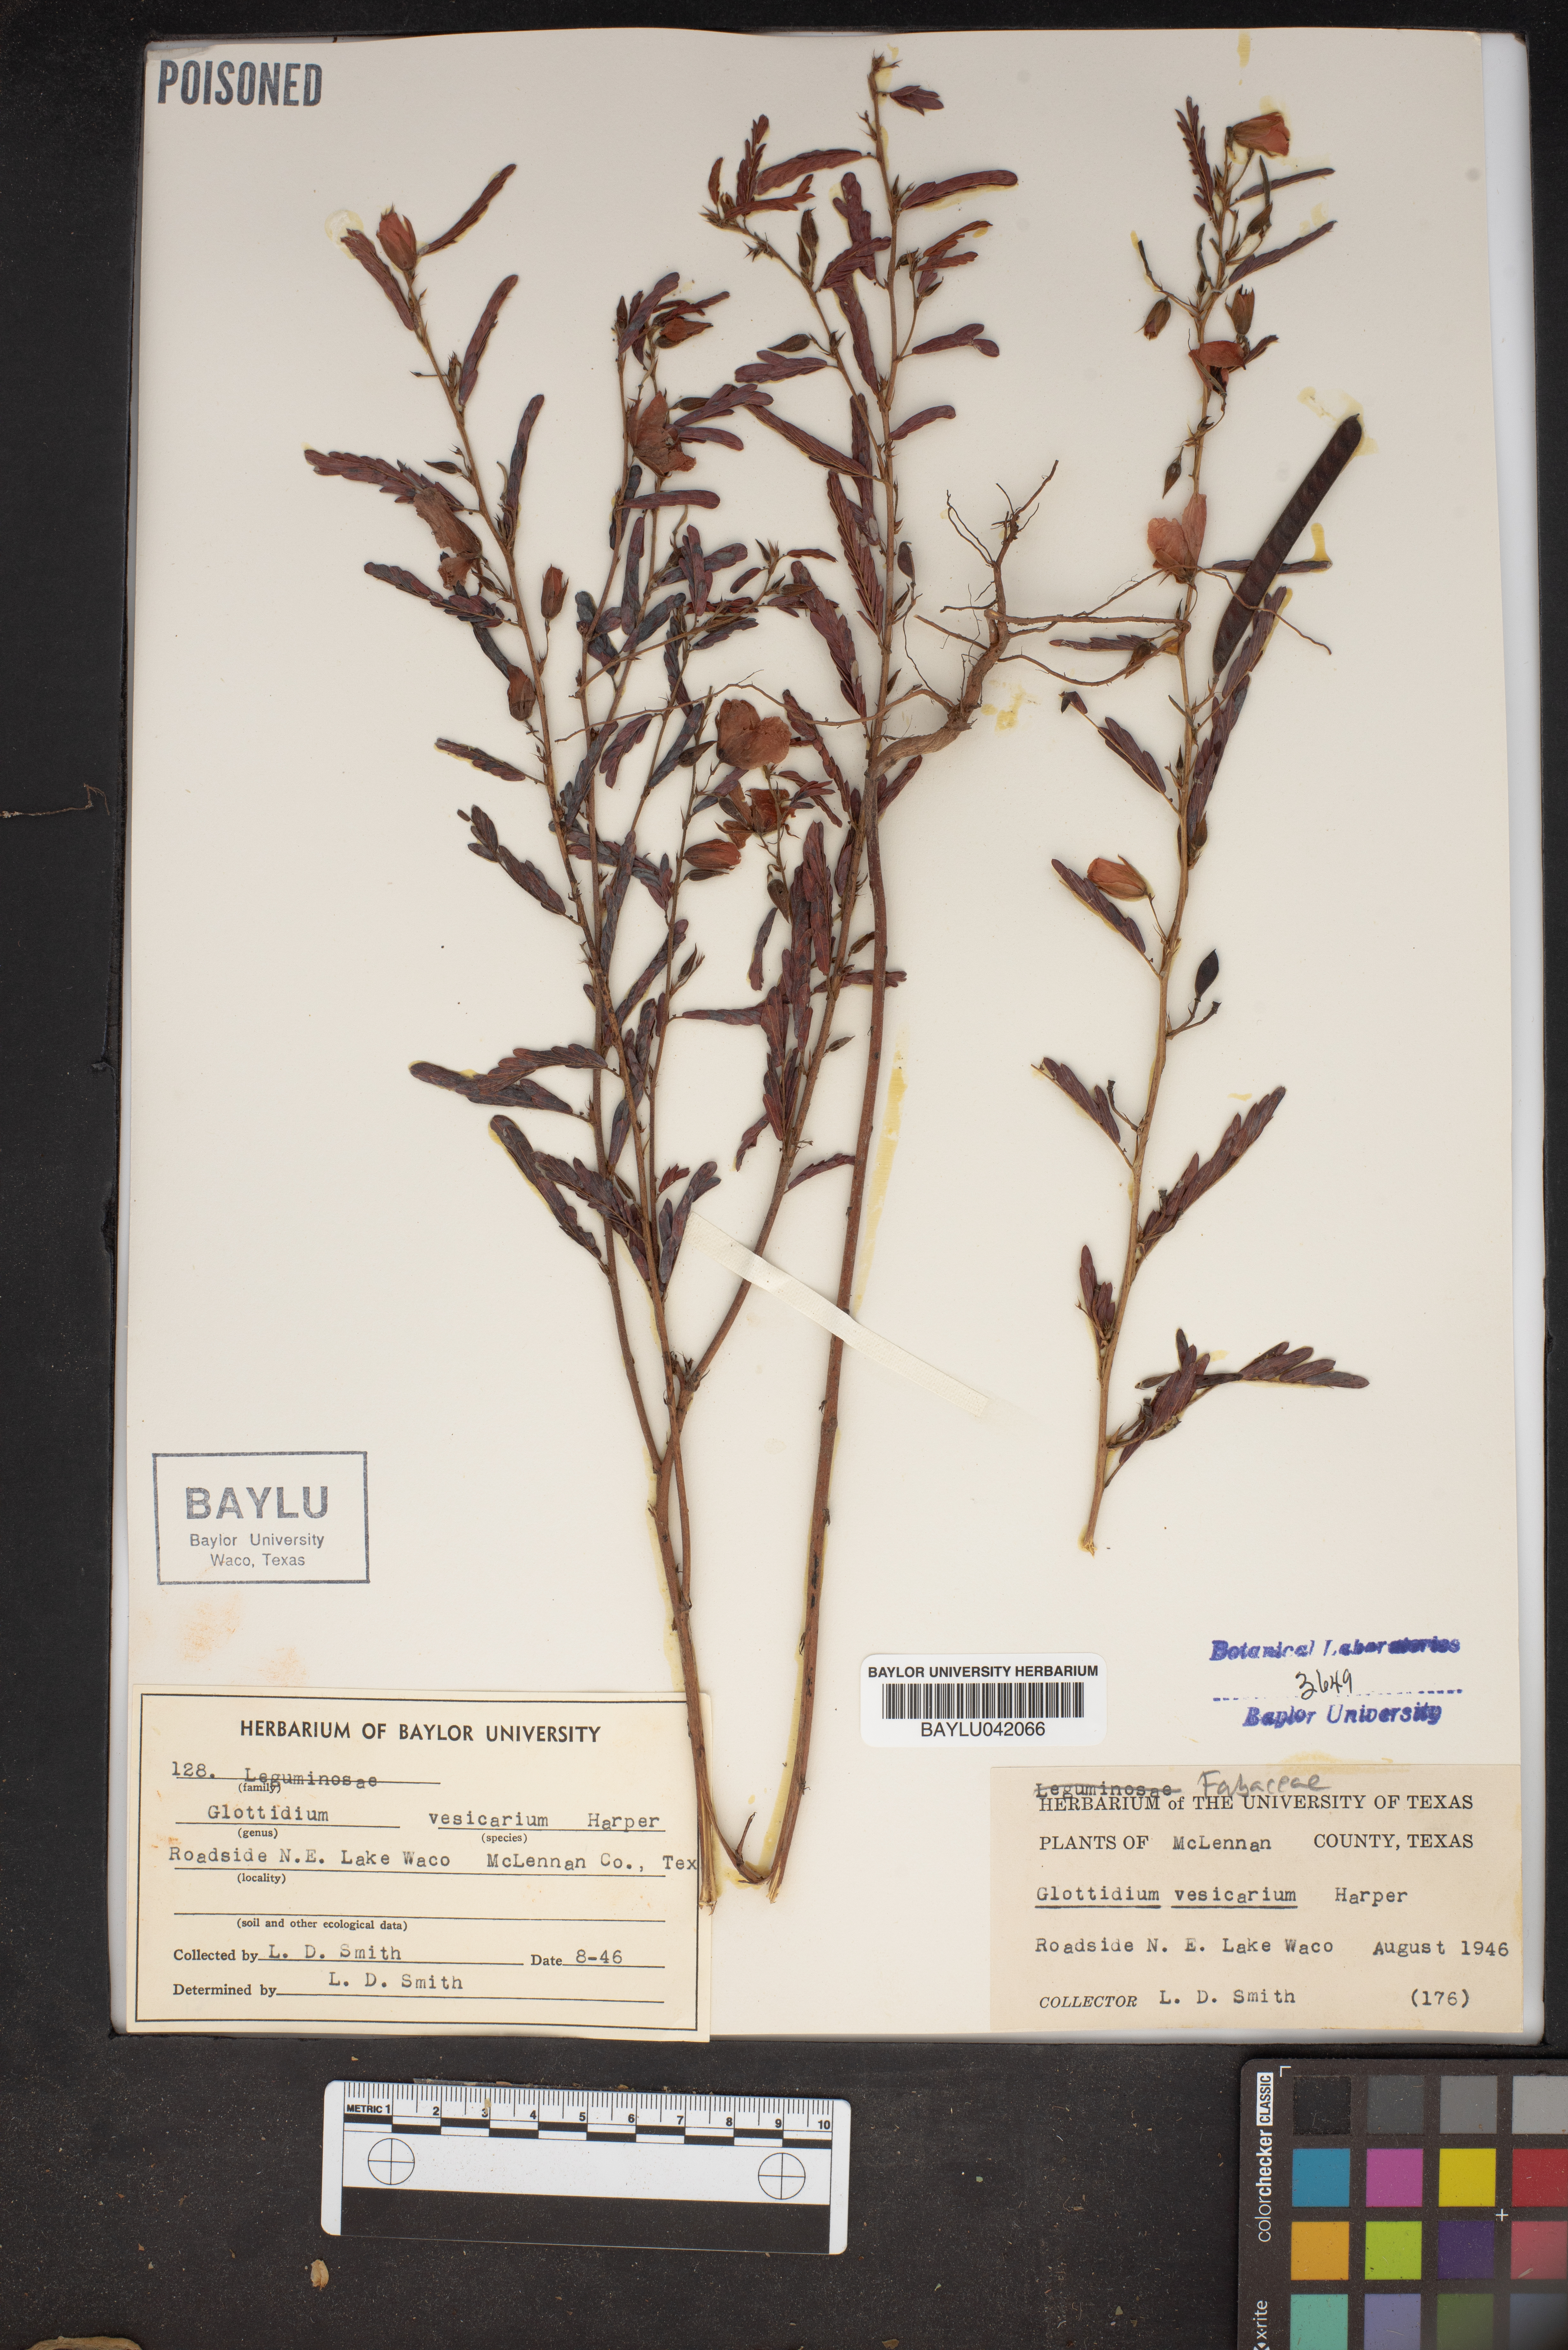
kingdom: Plantae
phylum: Tracheophyta
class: Magnoliopsida
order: Fabales
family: Fabaceae
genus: Sesbania
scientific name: Sesbania vesicaria
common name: Bagpod
